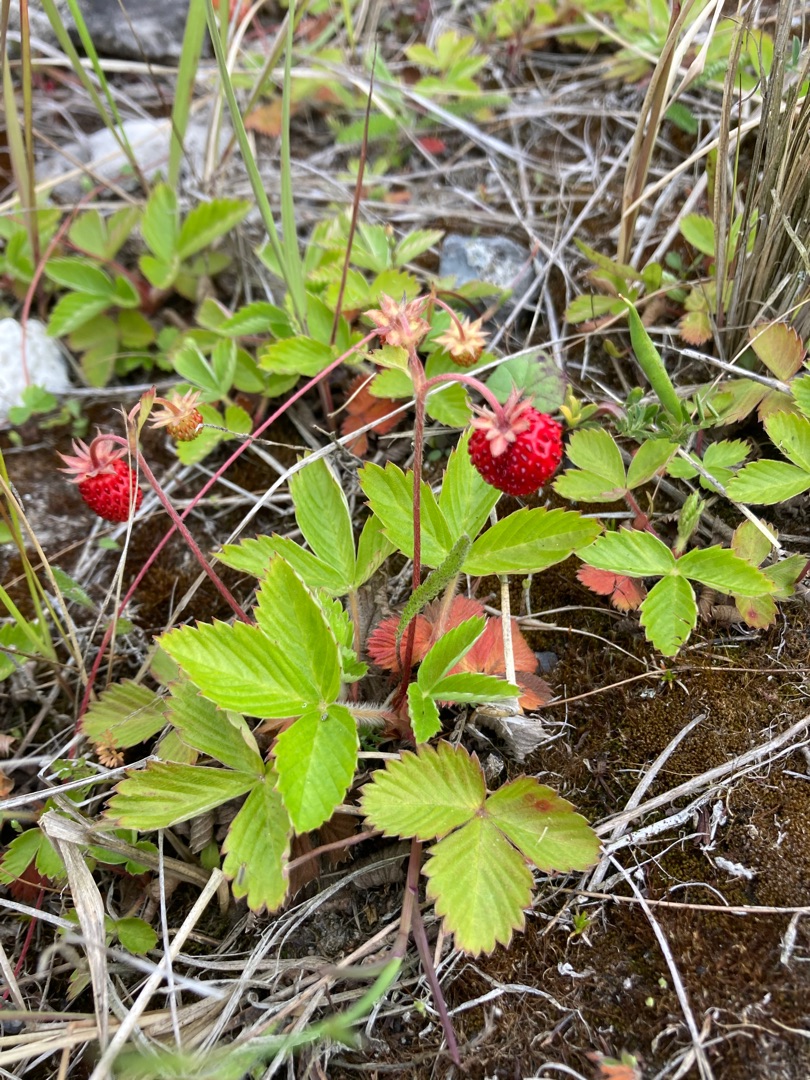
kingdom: Plantae
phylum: Tracheophyta
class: Magnoliopsida
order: Rosales
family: Rosaceae
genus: Fragaria
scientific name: Fragaria vesca
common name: Skov-jordbær
